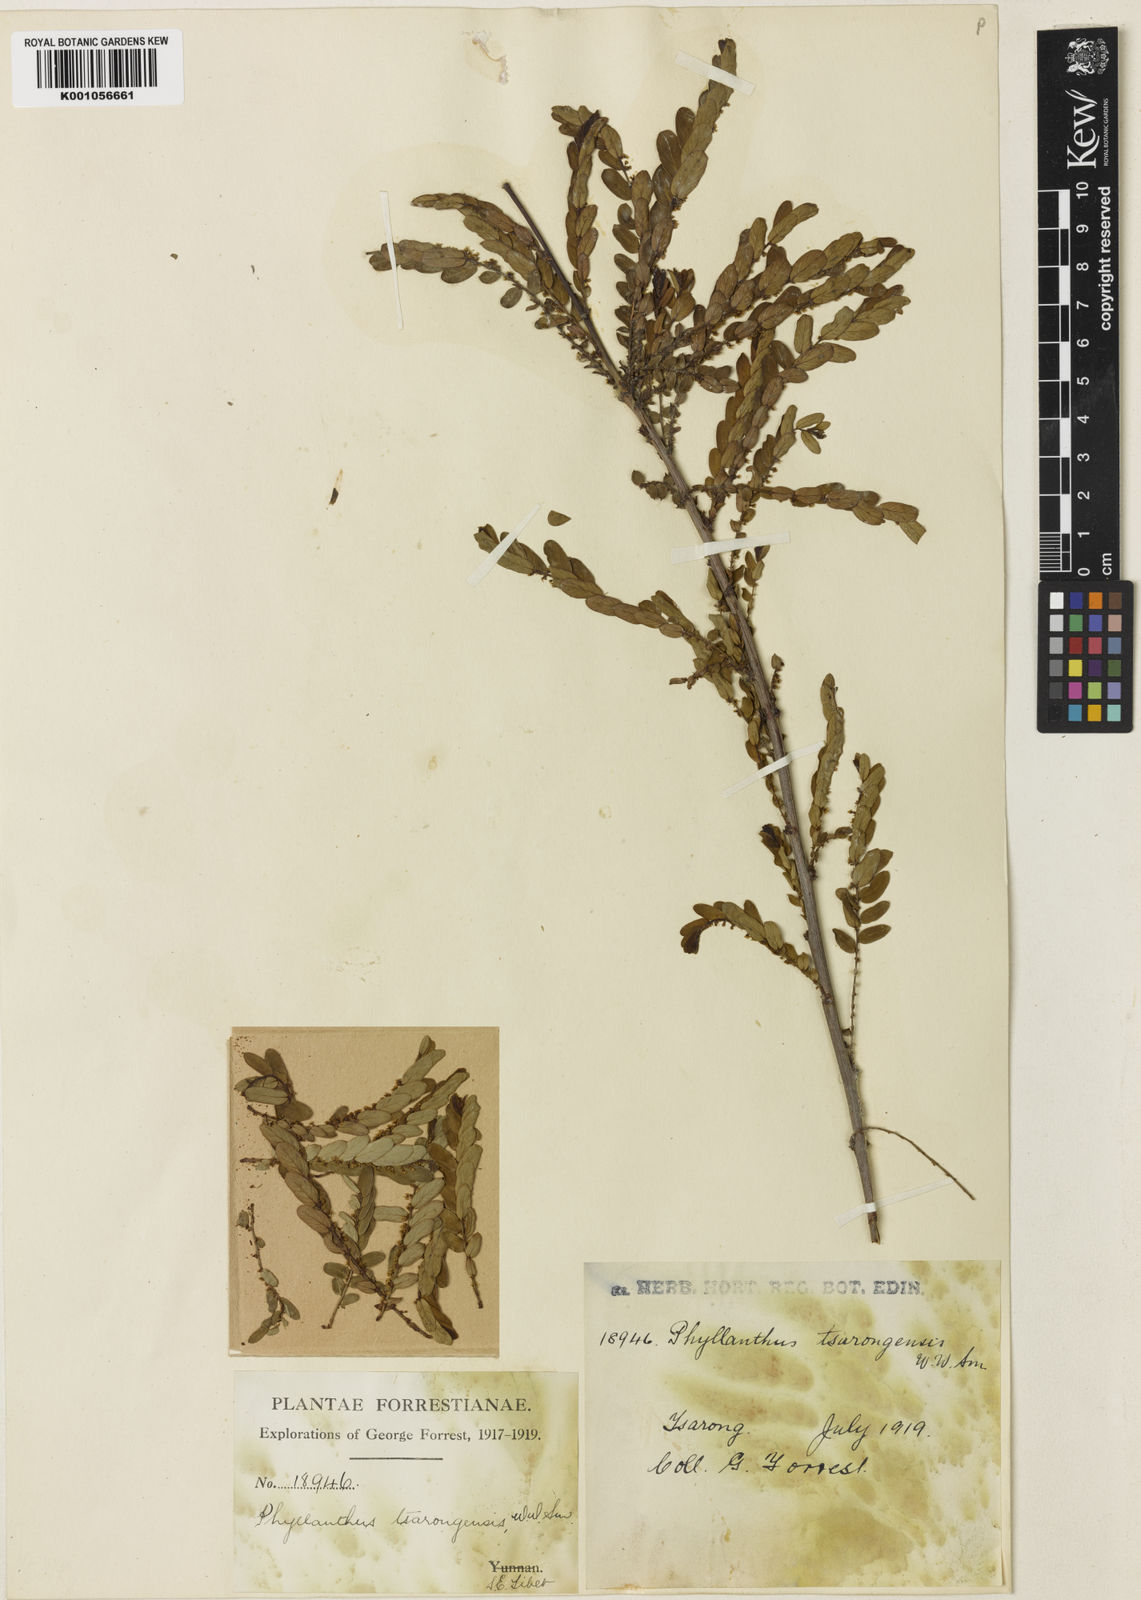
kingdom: Plantae
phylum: Tracheophyta
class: Magnoliopsida
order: Malpighiales
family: Phyllanthaceae
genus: Phyllanthus
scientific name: Phyllanthus tsarongensis
